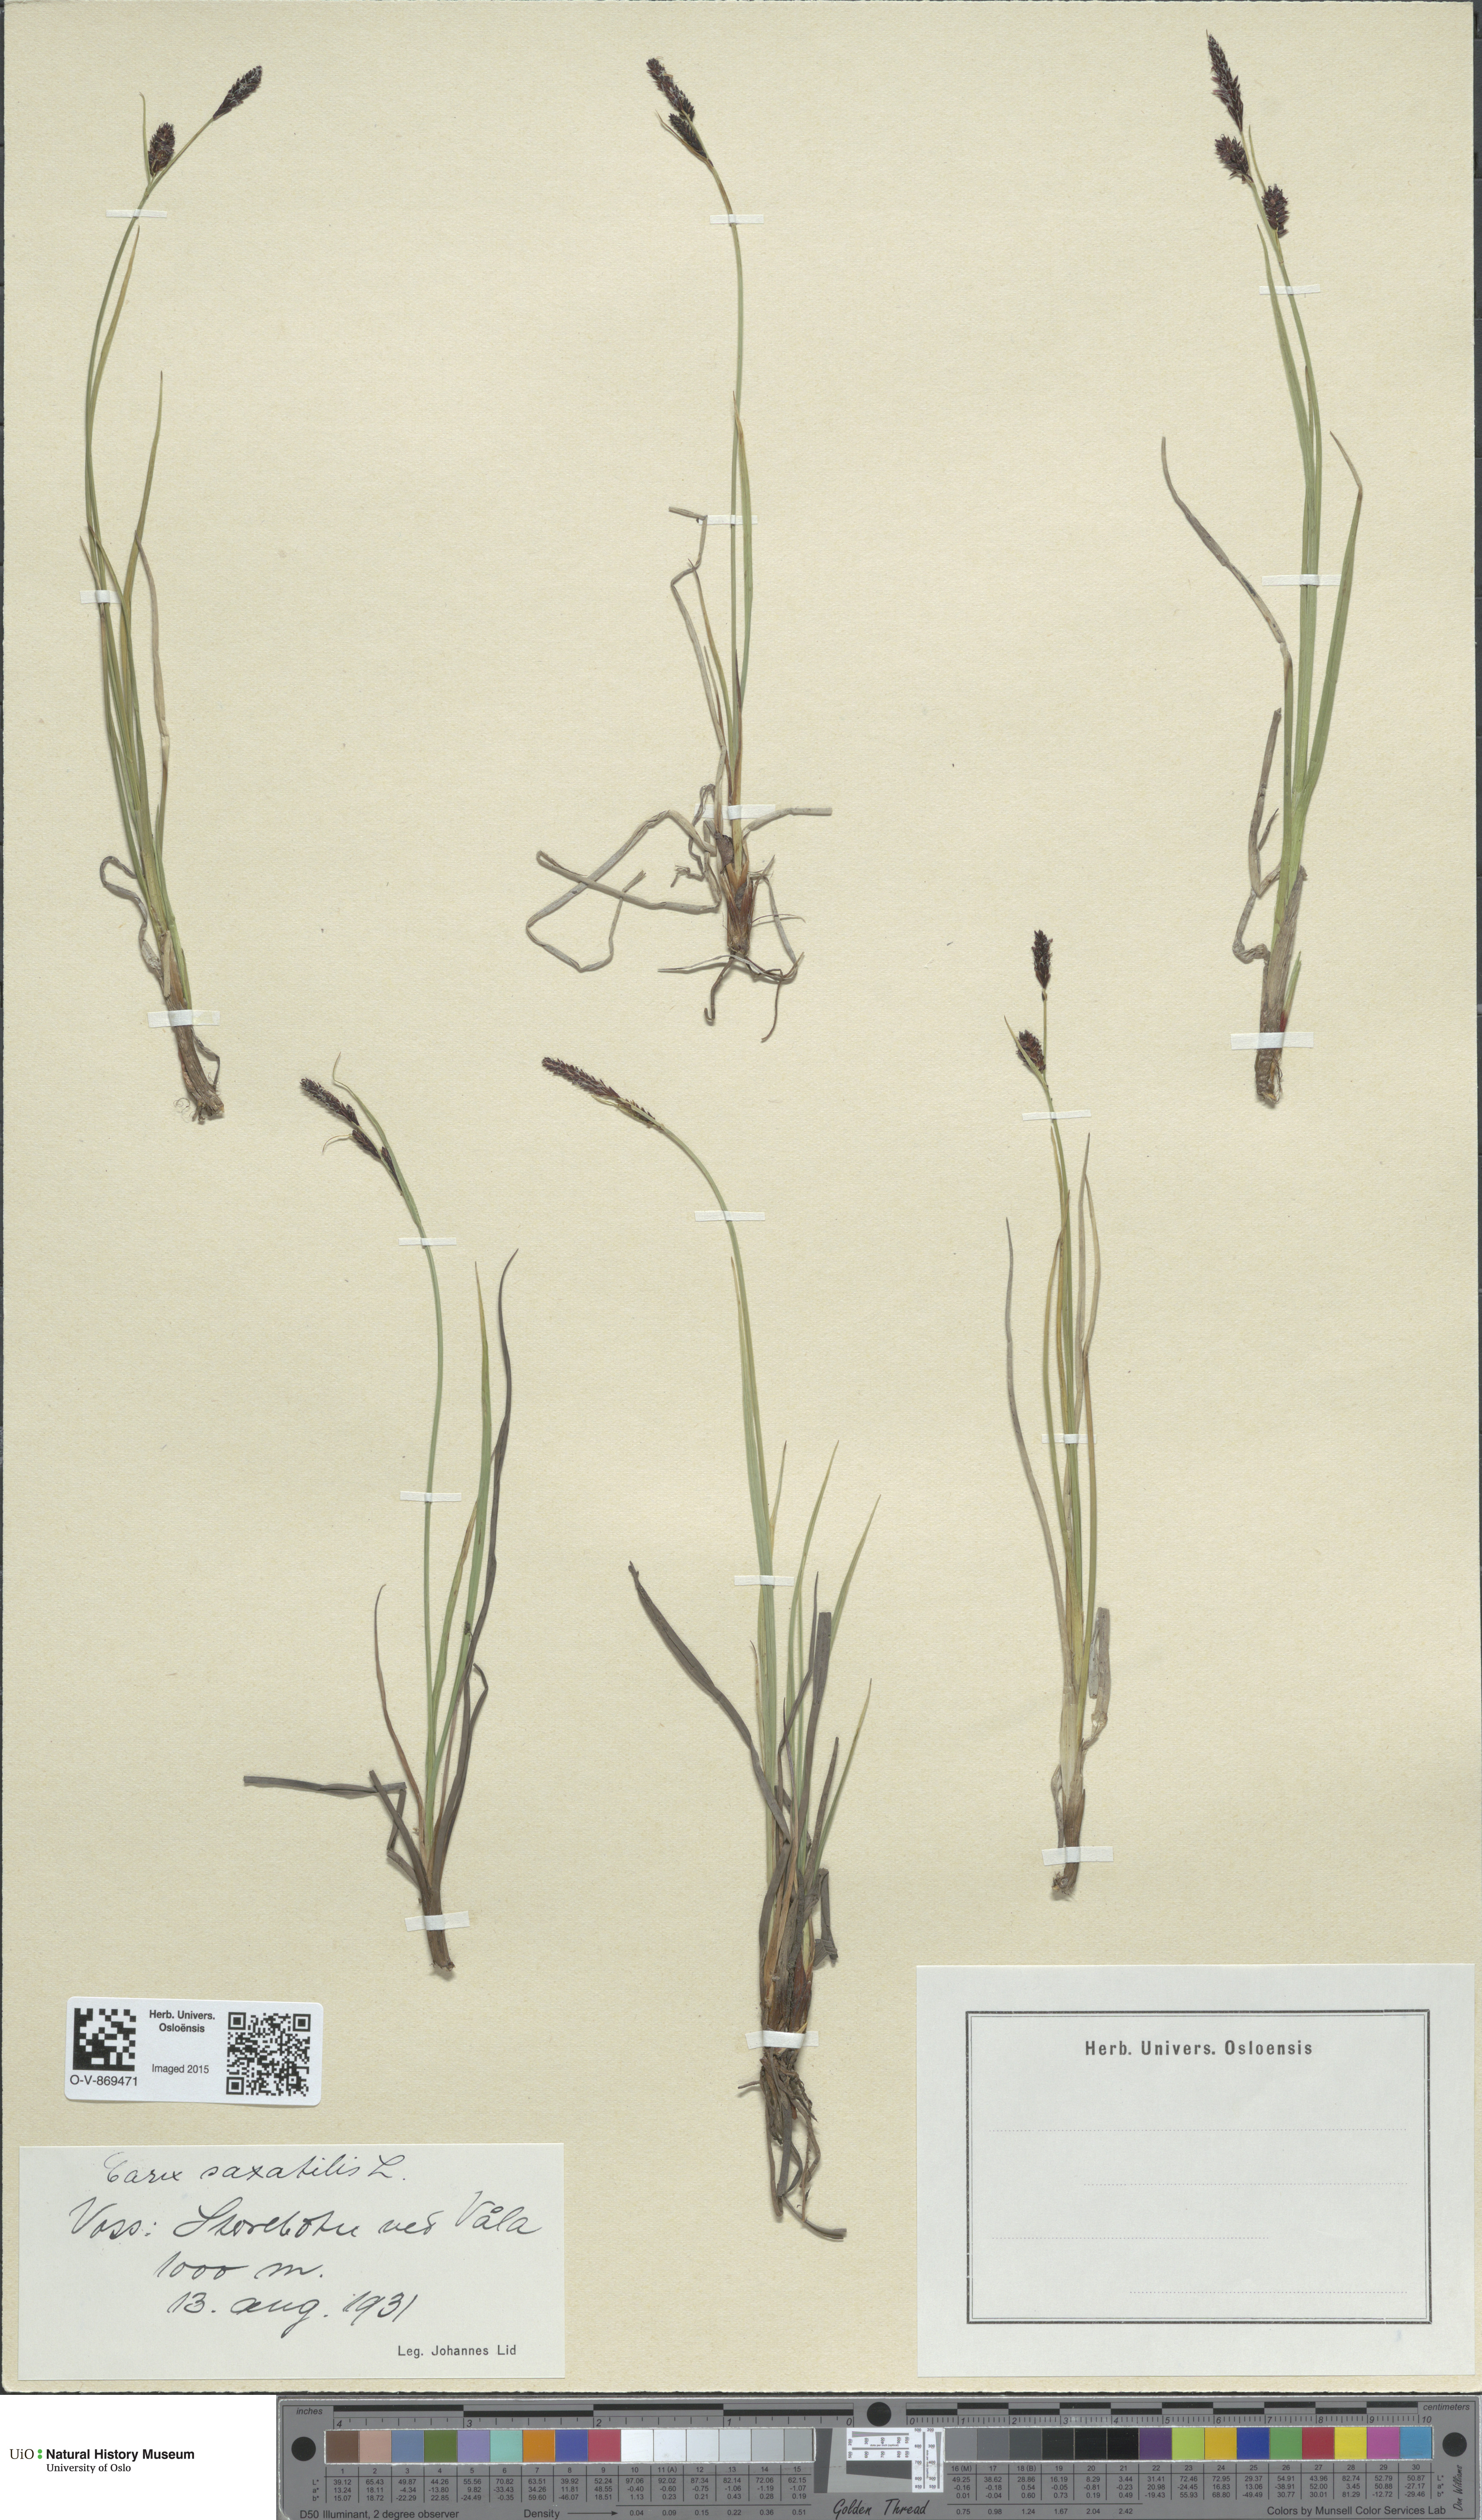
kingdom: Plantae
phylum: Tracheophyta
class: Liliopsida
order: Poales
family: Cyperaceae
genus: Carex
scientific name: Carex saxatilis
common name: Russet sedge
